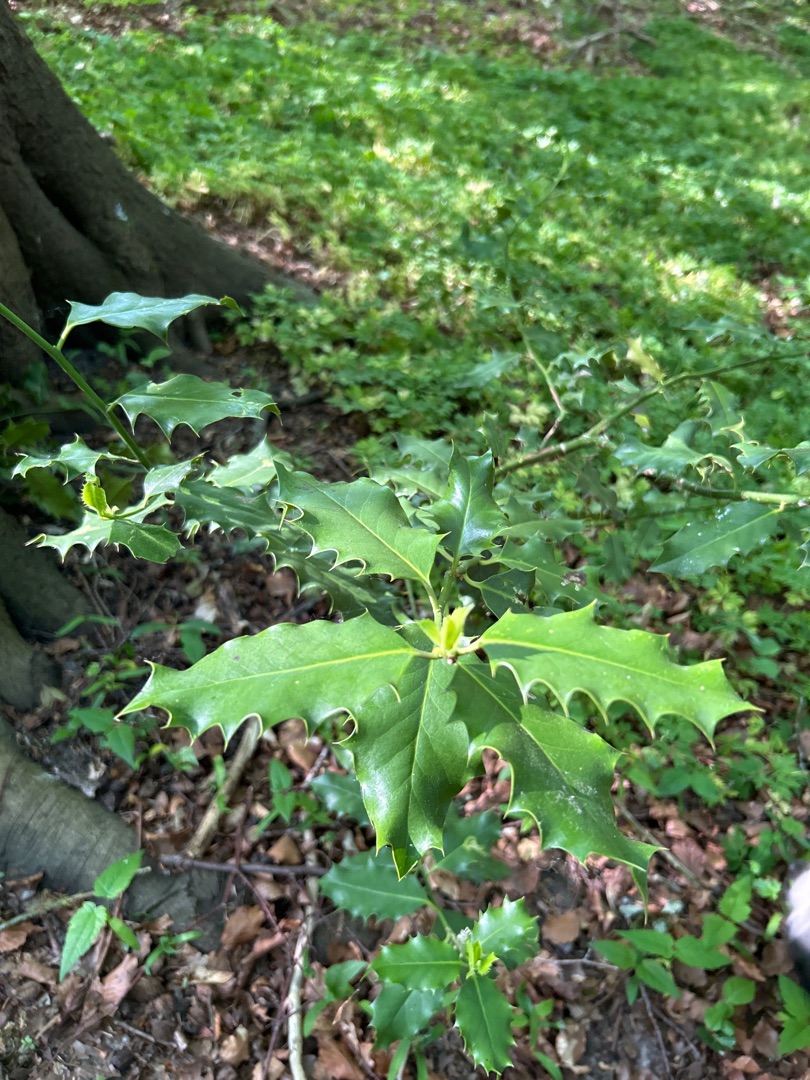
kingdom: Plantae
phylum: Tracheophyta
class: Magnoliopsida
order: Aquifoliales
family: Aquifoliaceae
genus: Ilex
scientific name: Ilex aquifolium
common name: Kristtorn
